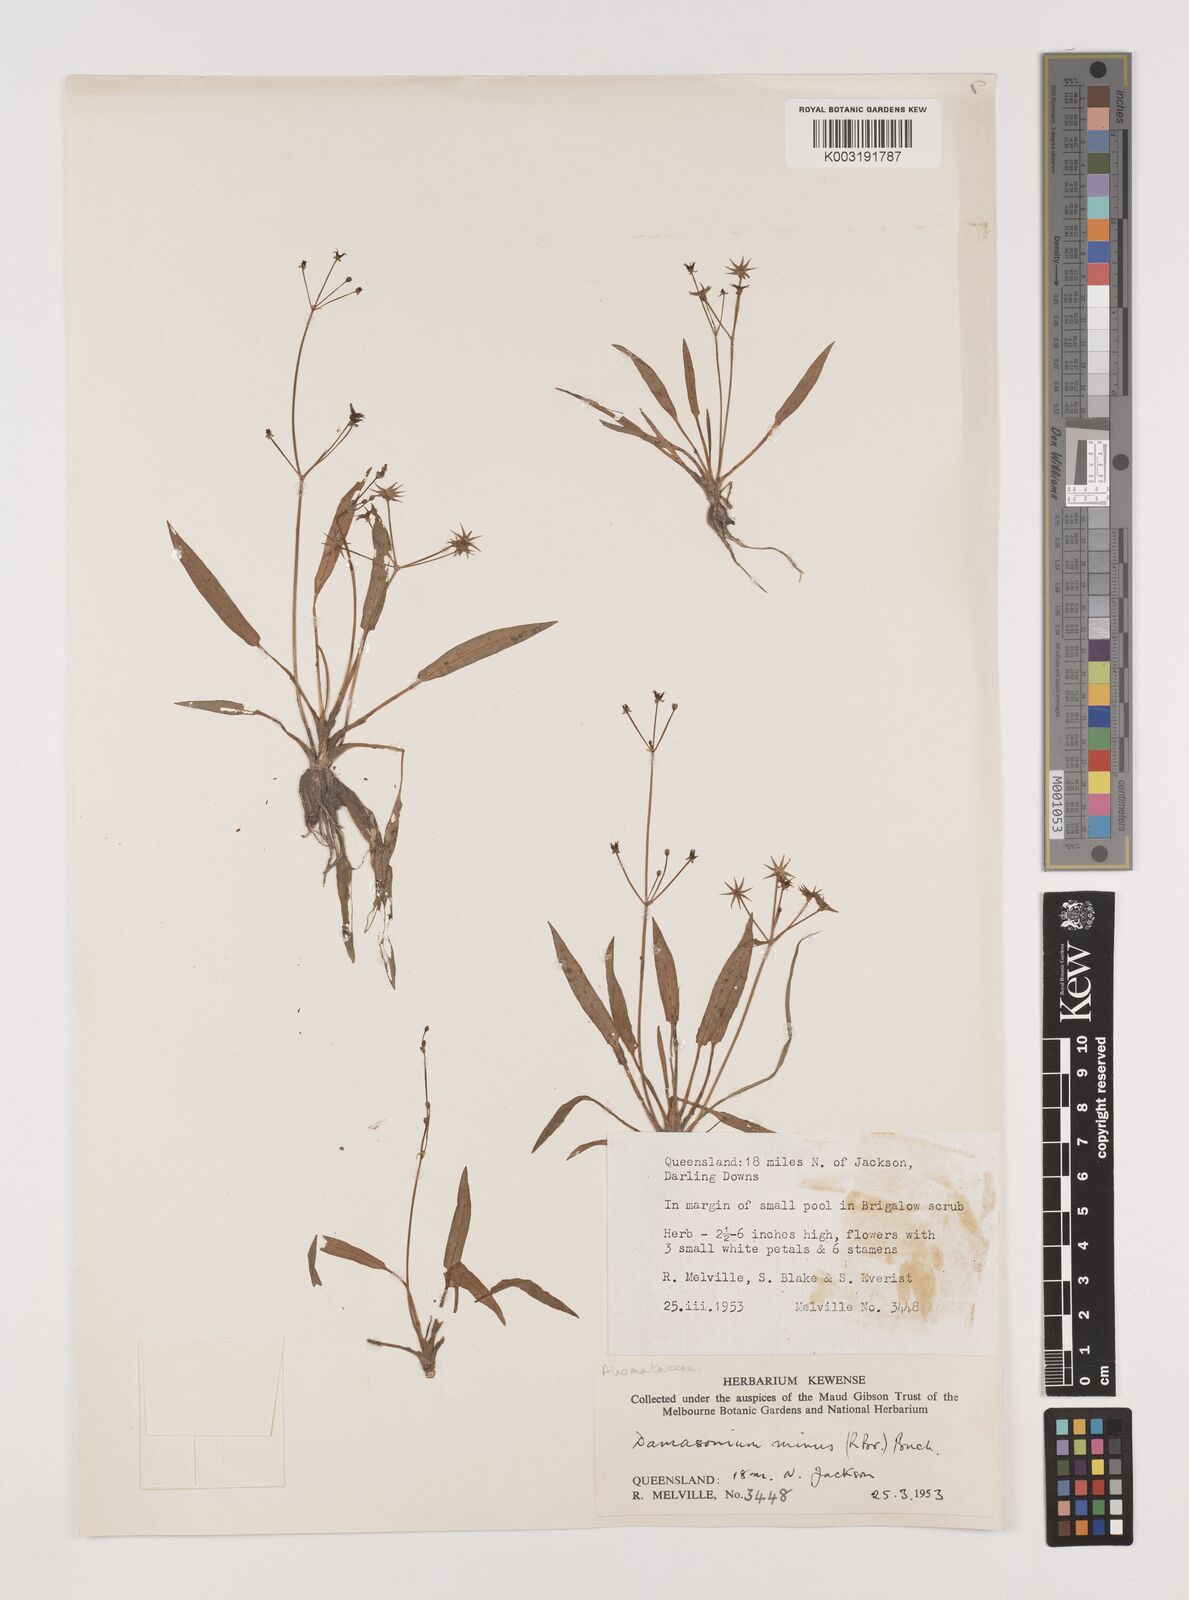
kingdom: Plantae
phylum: Tracheophyta
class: Liliopsida
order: Alismatales
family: Alismataceae
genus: Damasonium
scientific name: Damasonium minus
